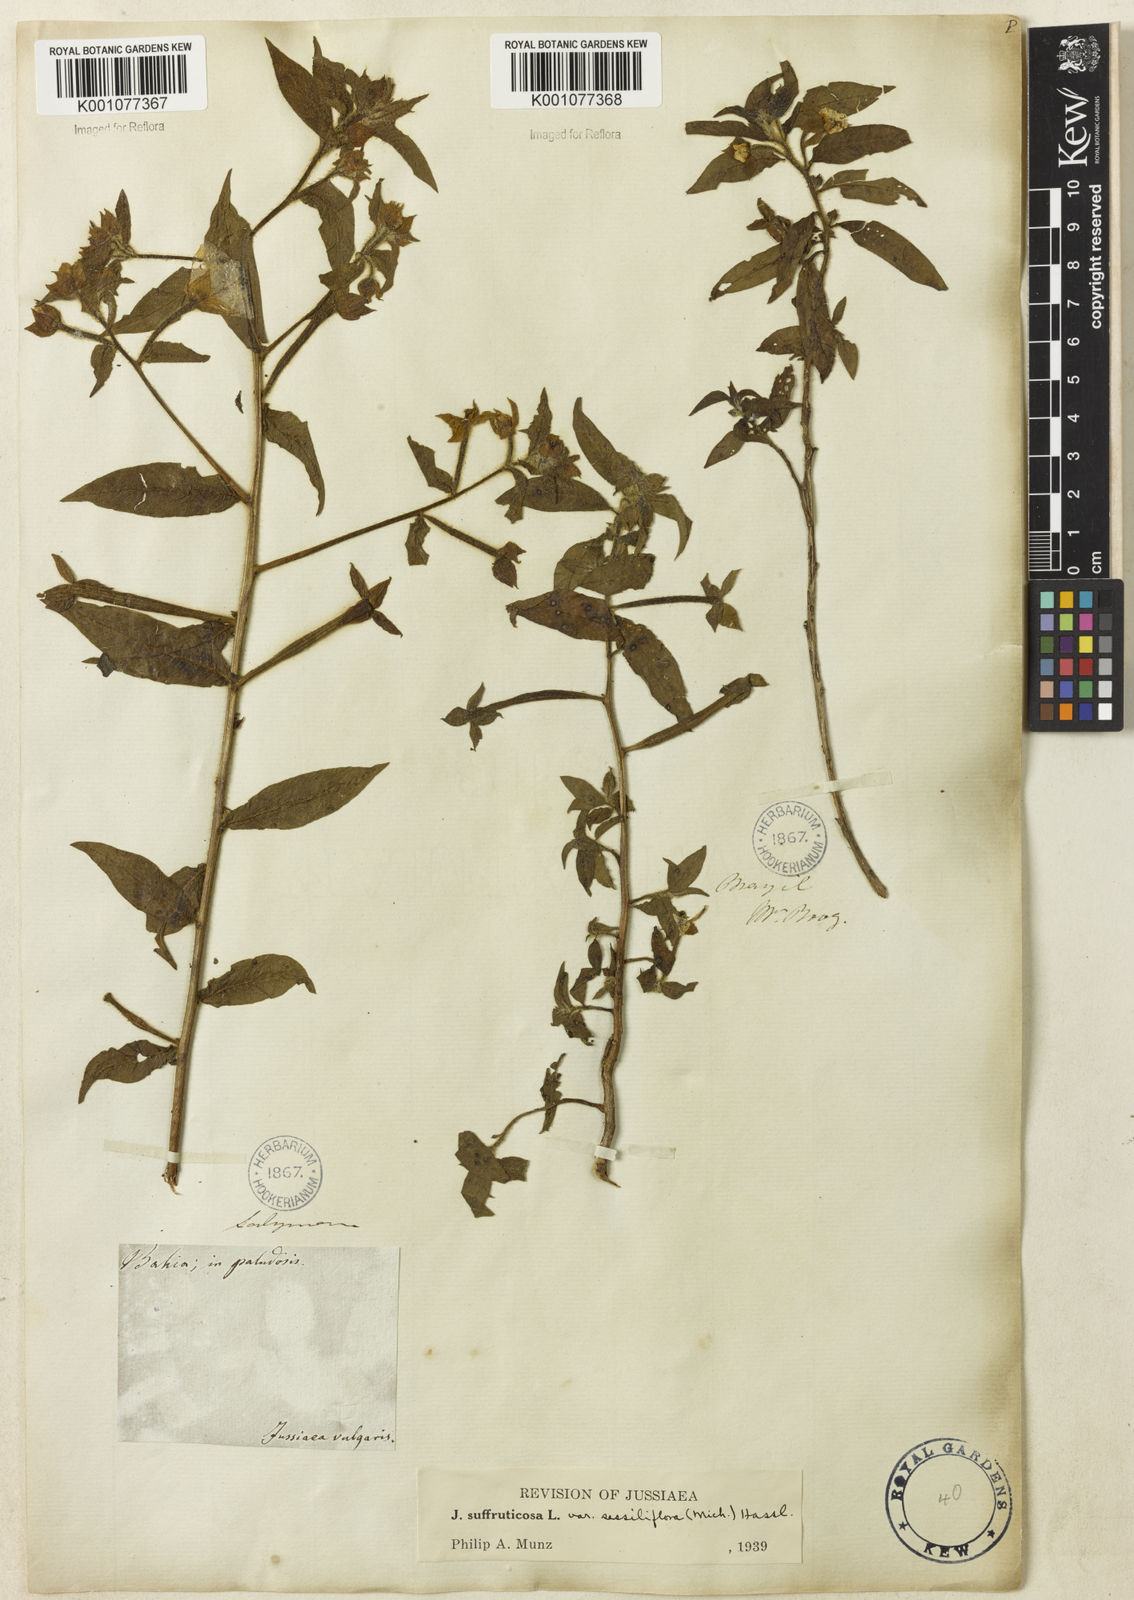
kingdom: Plantae
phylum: Tracheophyta
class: Magnoliopsida
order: Myrtales
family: Onagraceae
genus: Ludwigia
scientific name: Ludwigia octovalvis
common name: Water-primrose
